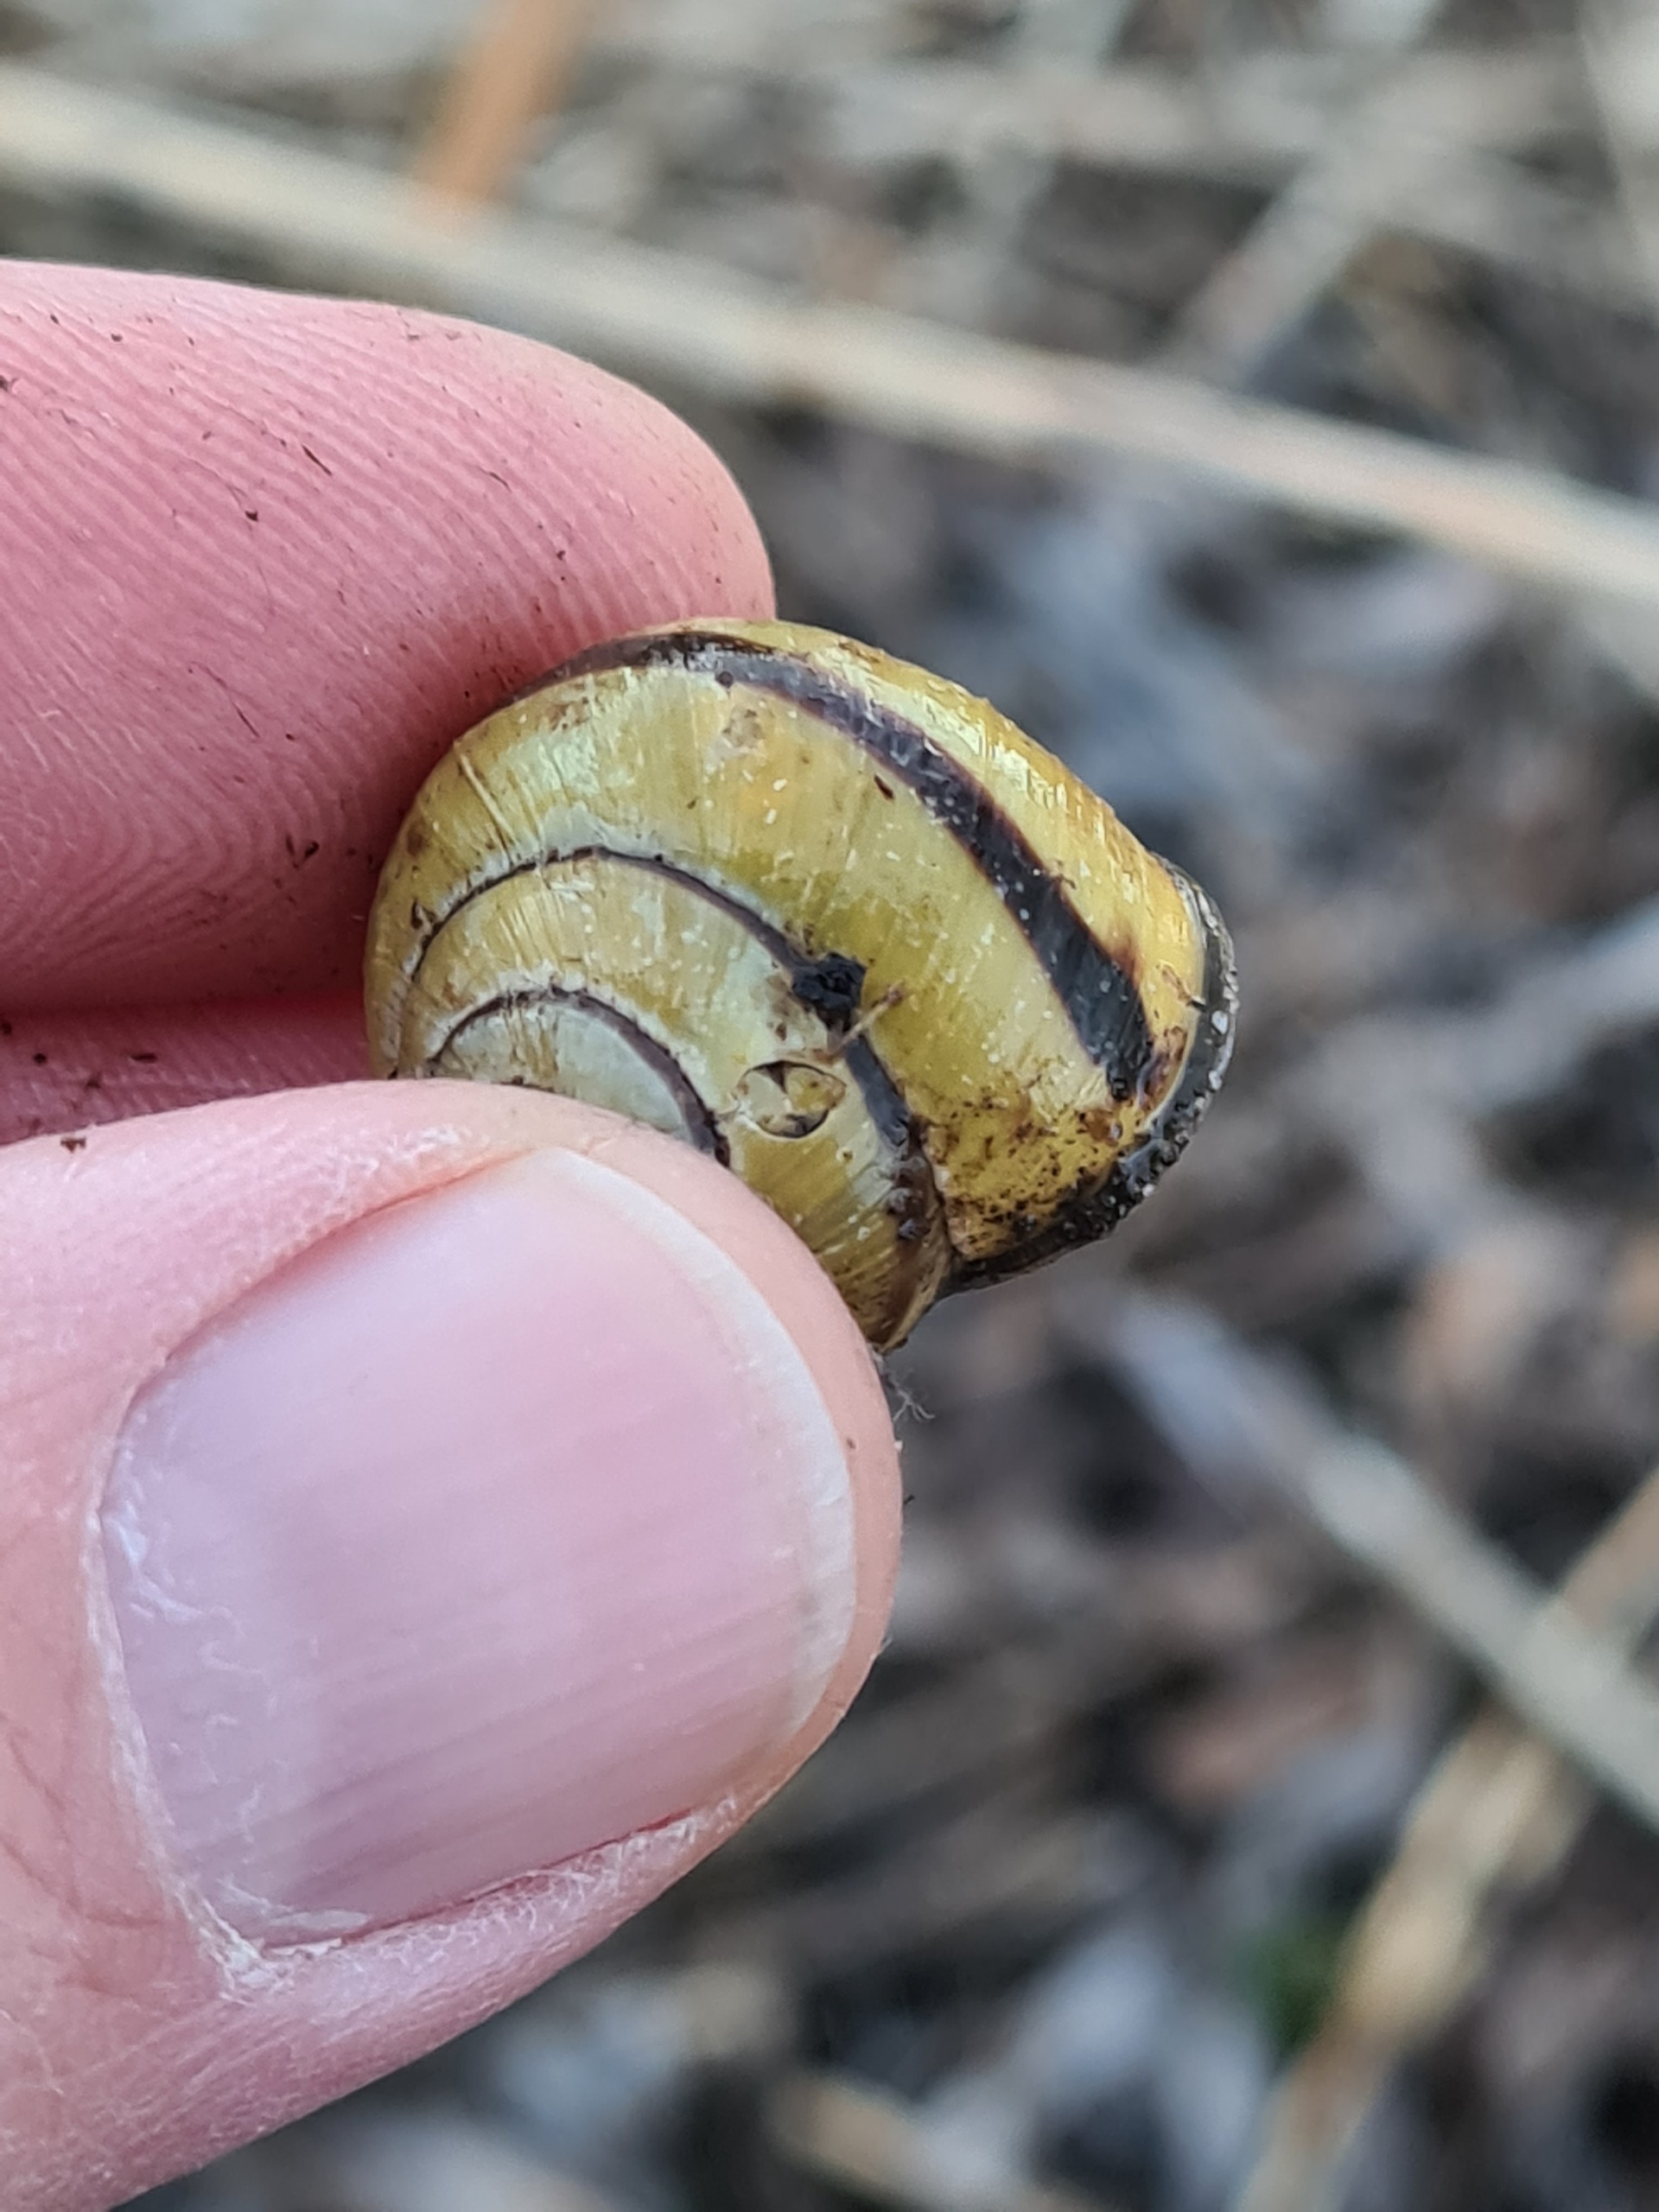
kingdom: Animalia
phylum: Mollusca
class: Gastropoda
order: Stylommatophora
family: Helicidae
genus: Cepaea
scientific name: Cepaea nemoralis
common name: Lundsnegl
